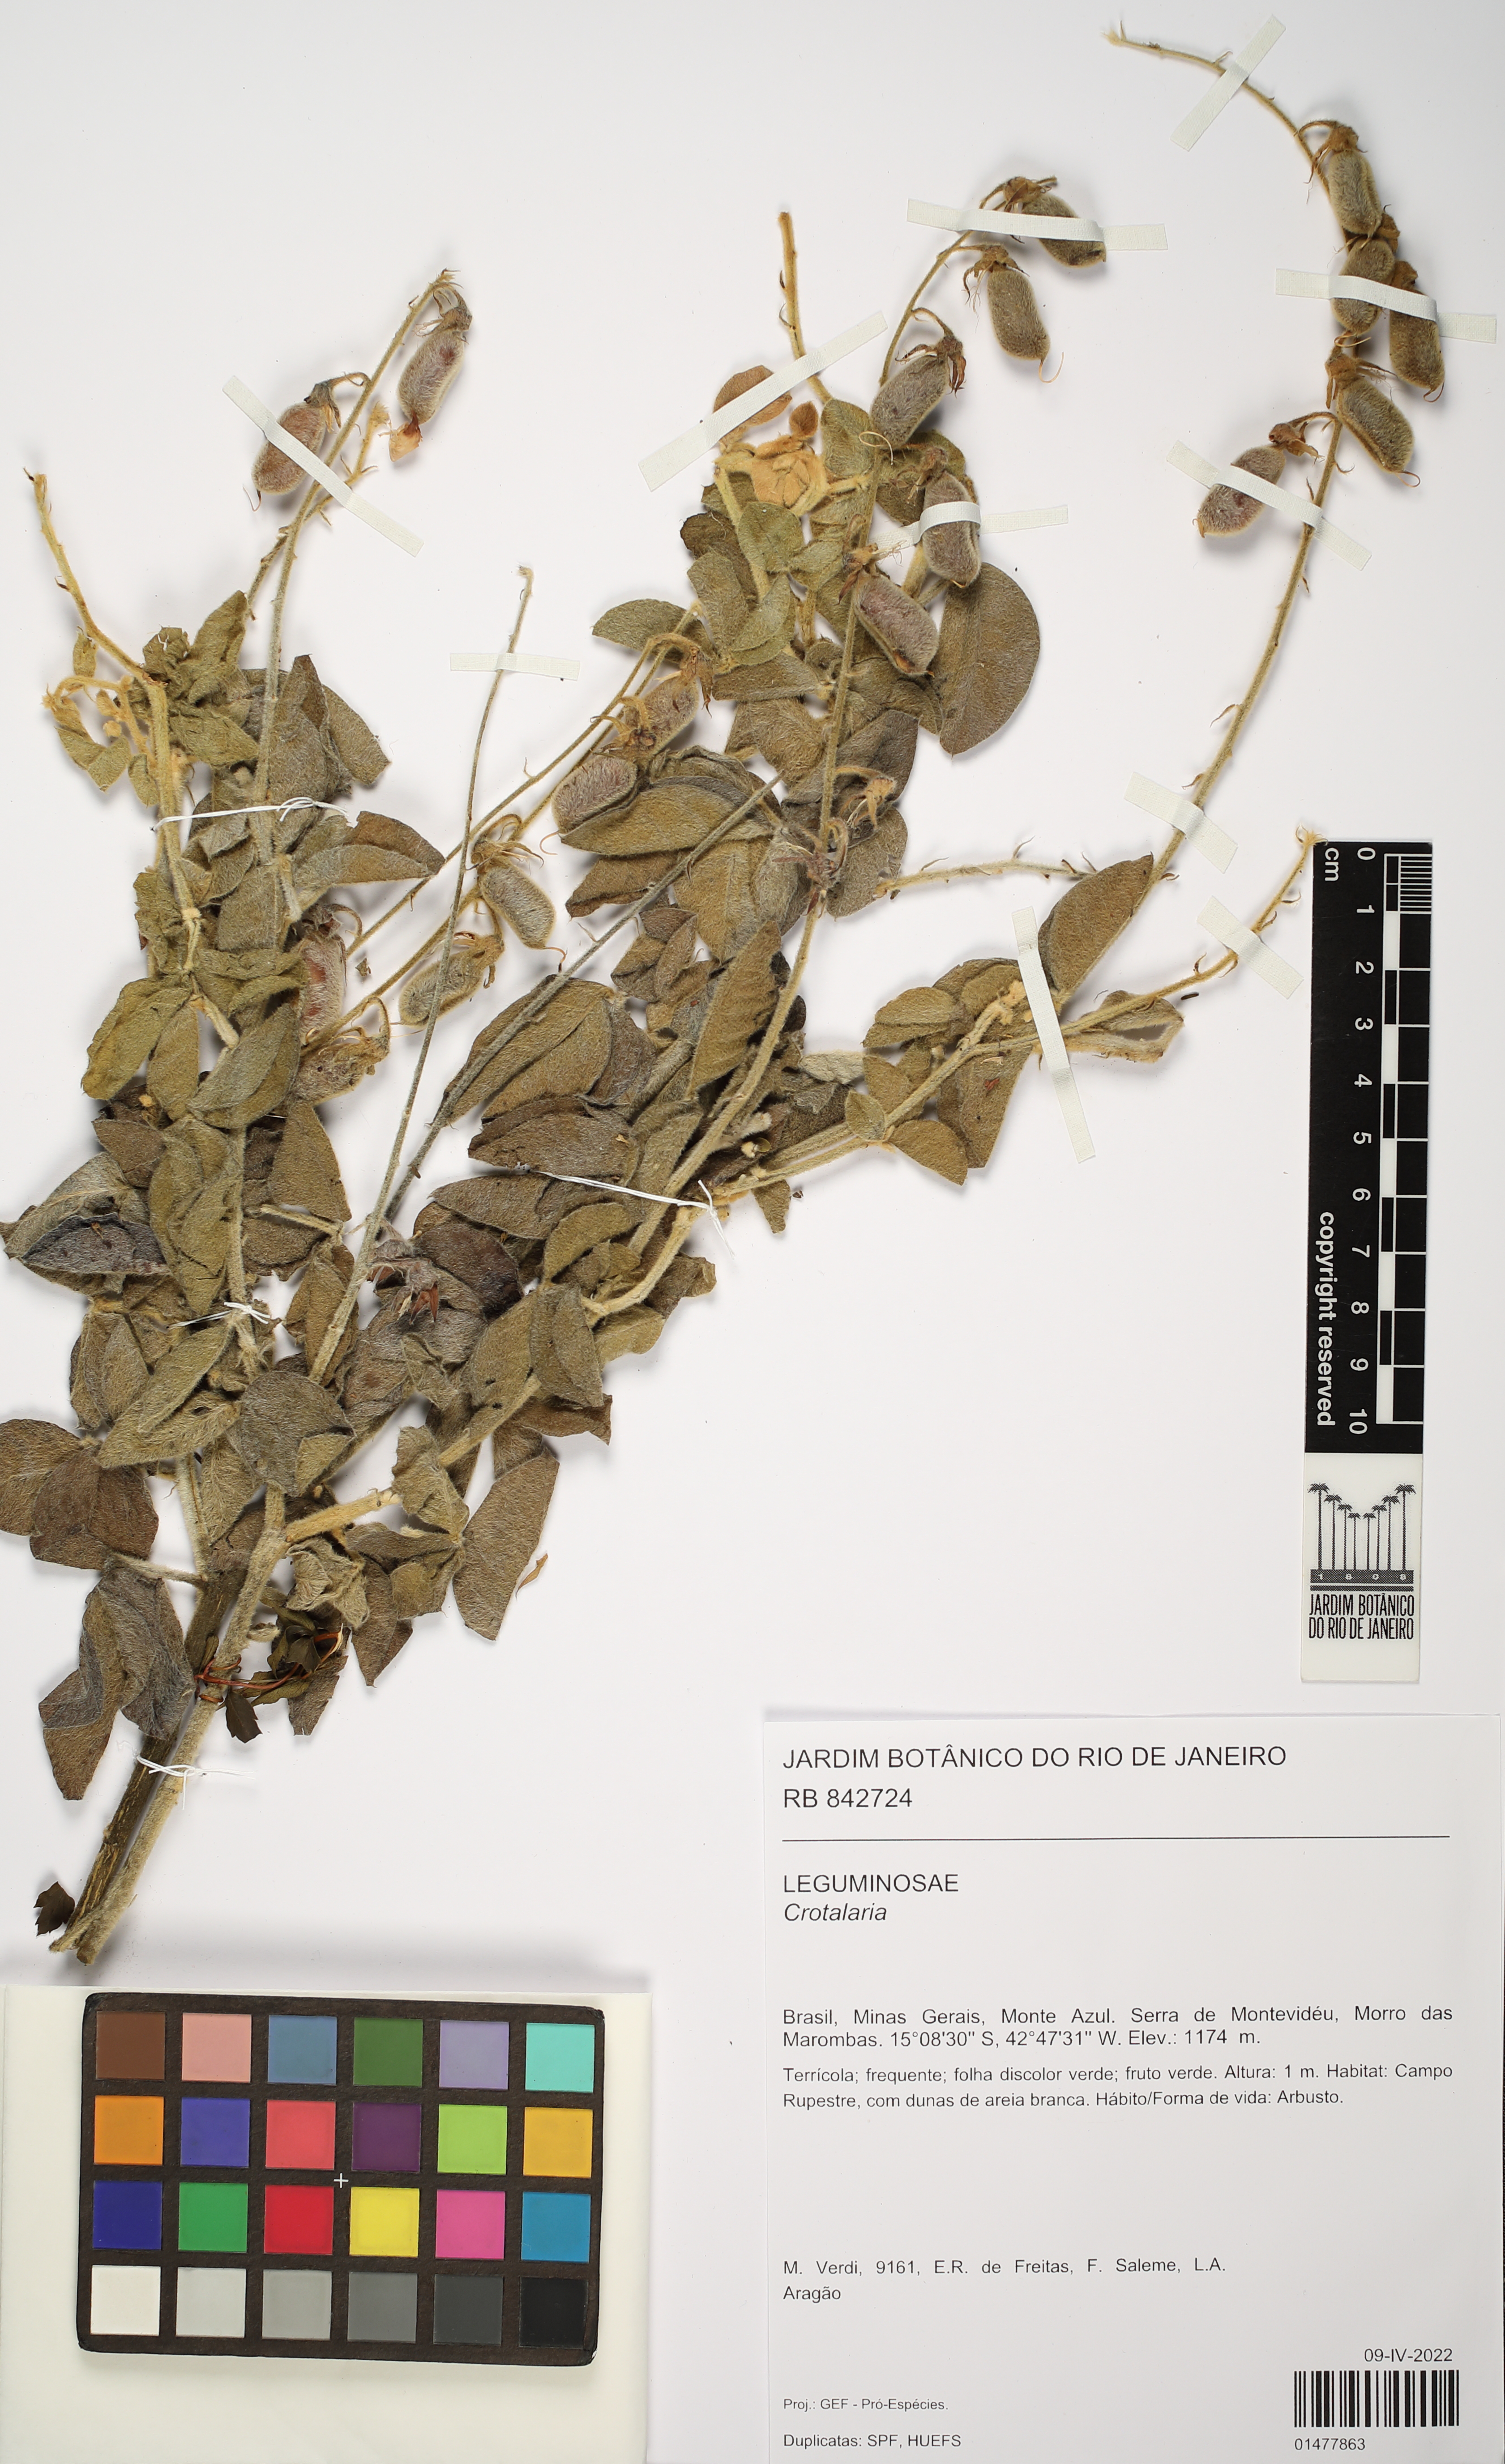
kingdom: Plantae
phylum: Tracheophyta
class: Magnoliopsida
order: Fabales
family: Fabaceae
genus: Crotalaria
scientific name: Crotalaria
